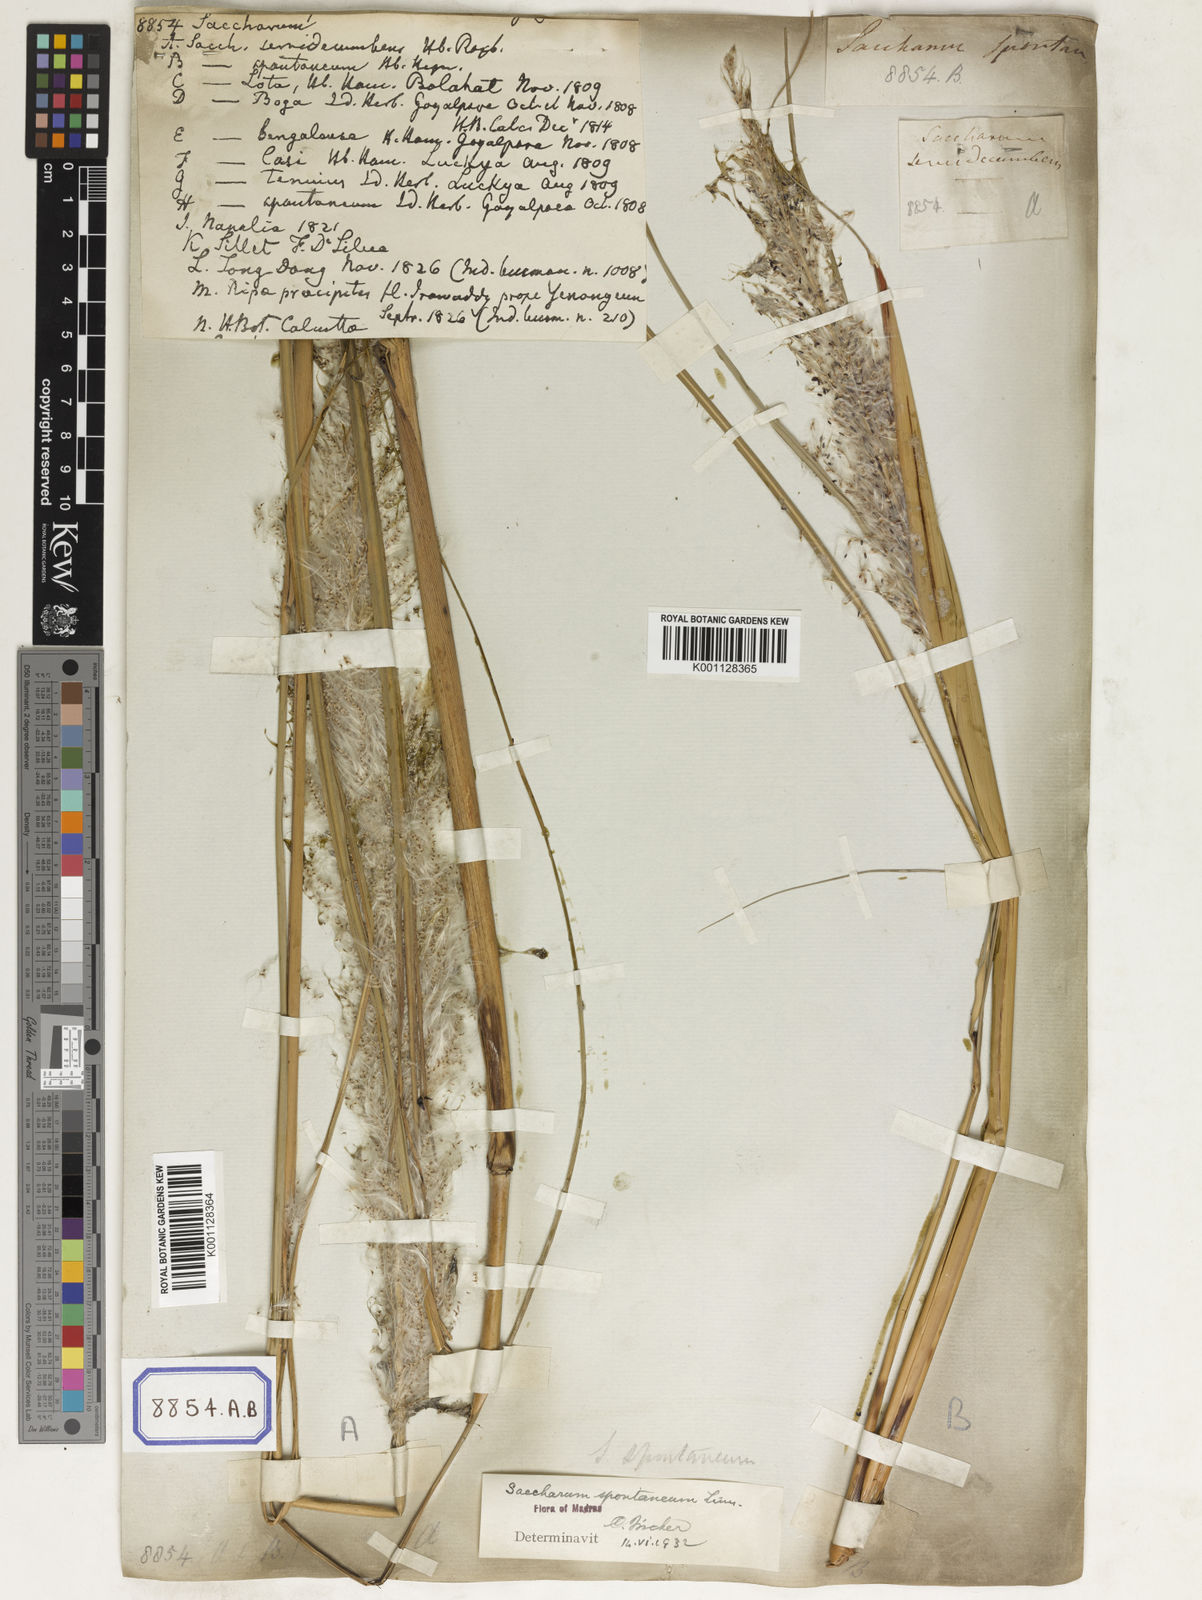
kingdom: Plantae
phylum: Tracheophyta
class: Liliopsida
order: Poales
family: Poaceae
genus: Saccharum
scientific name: Saccharum
